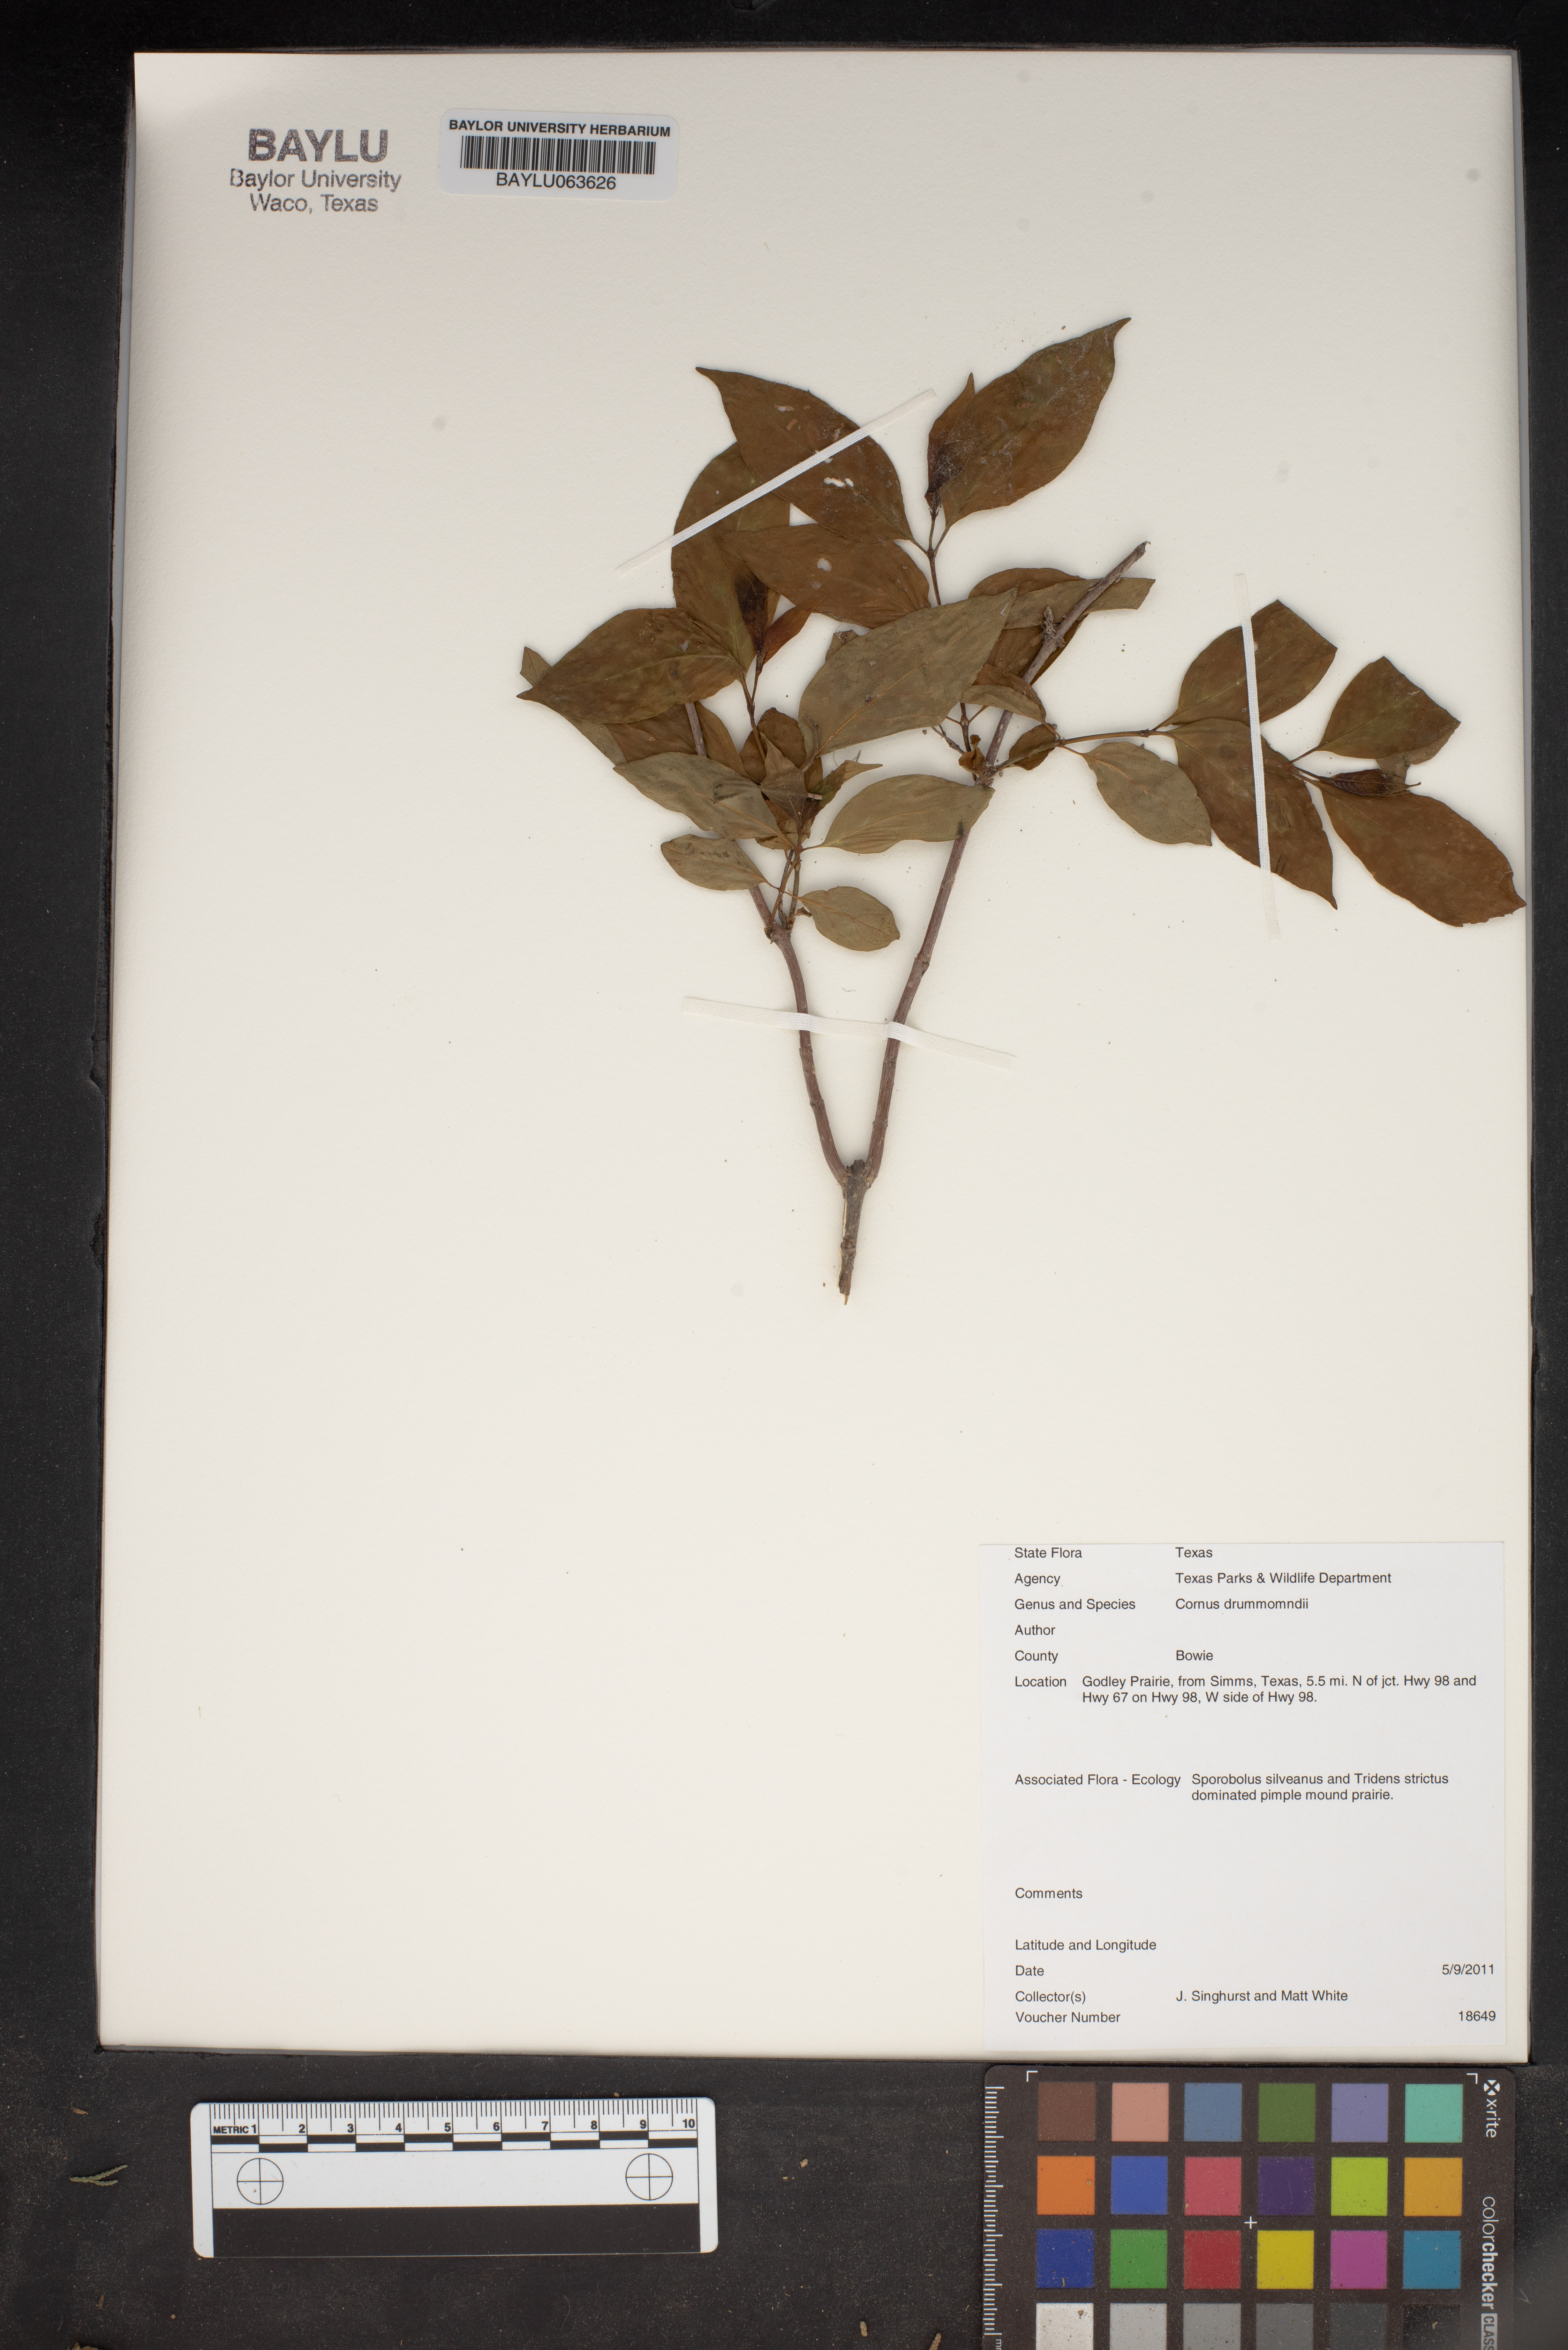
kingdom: Plantae
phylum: Tracheophyta
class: Magnoliopsida
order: Cornales
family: Cornaceae
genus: Cornus
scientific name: Cornus drummondii
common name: Rough-leaf dogwood
